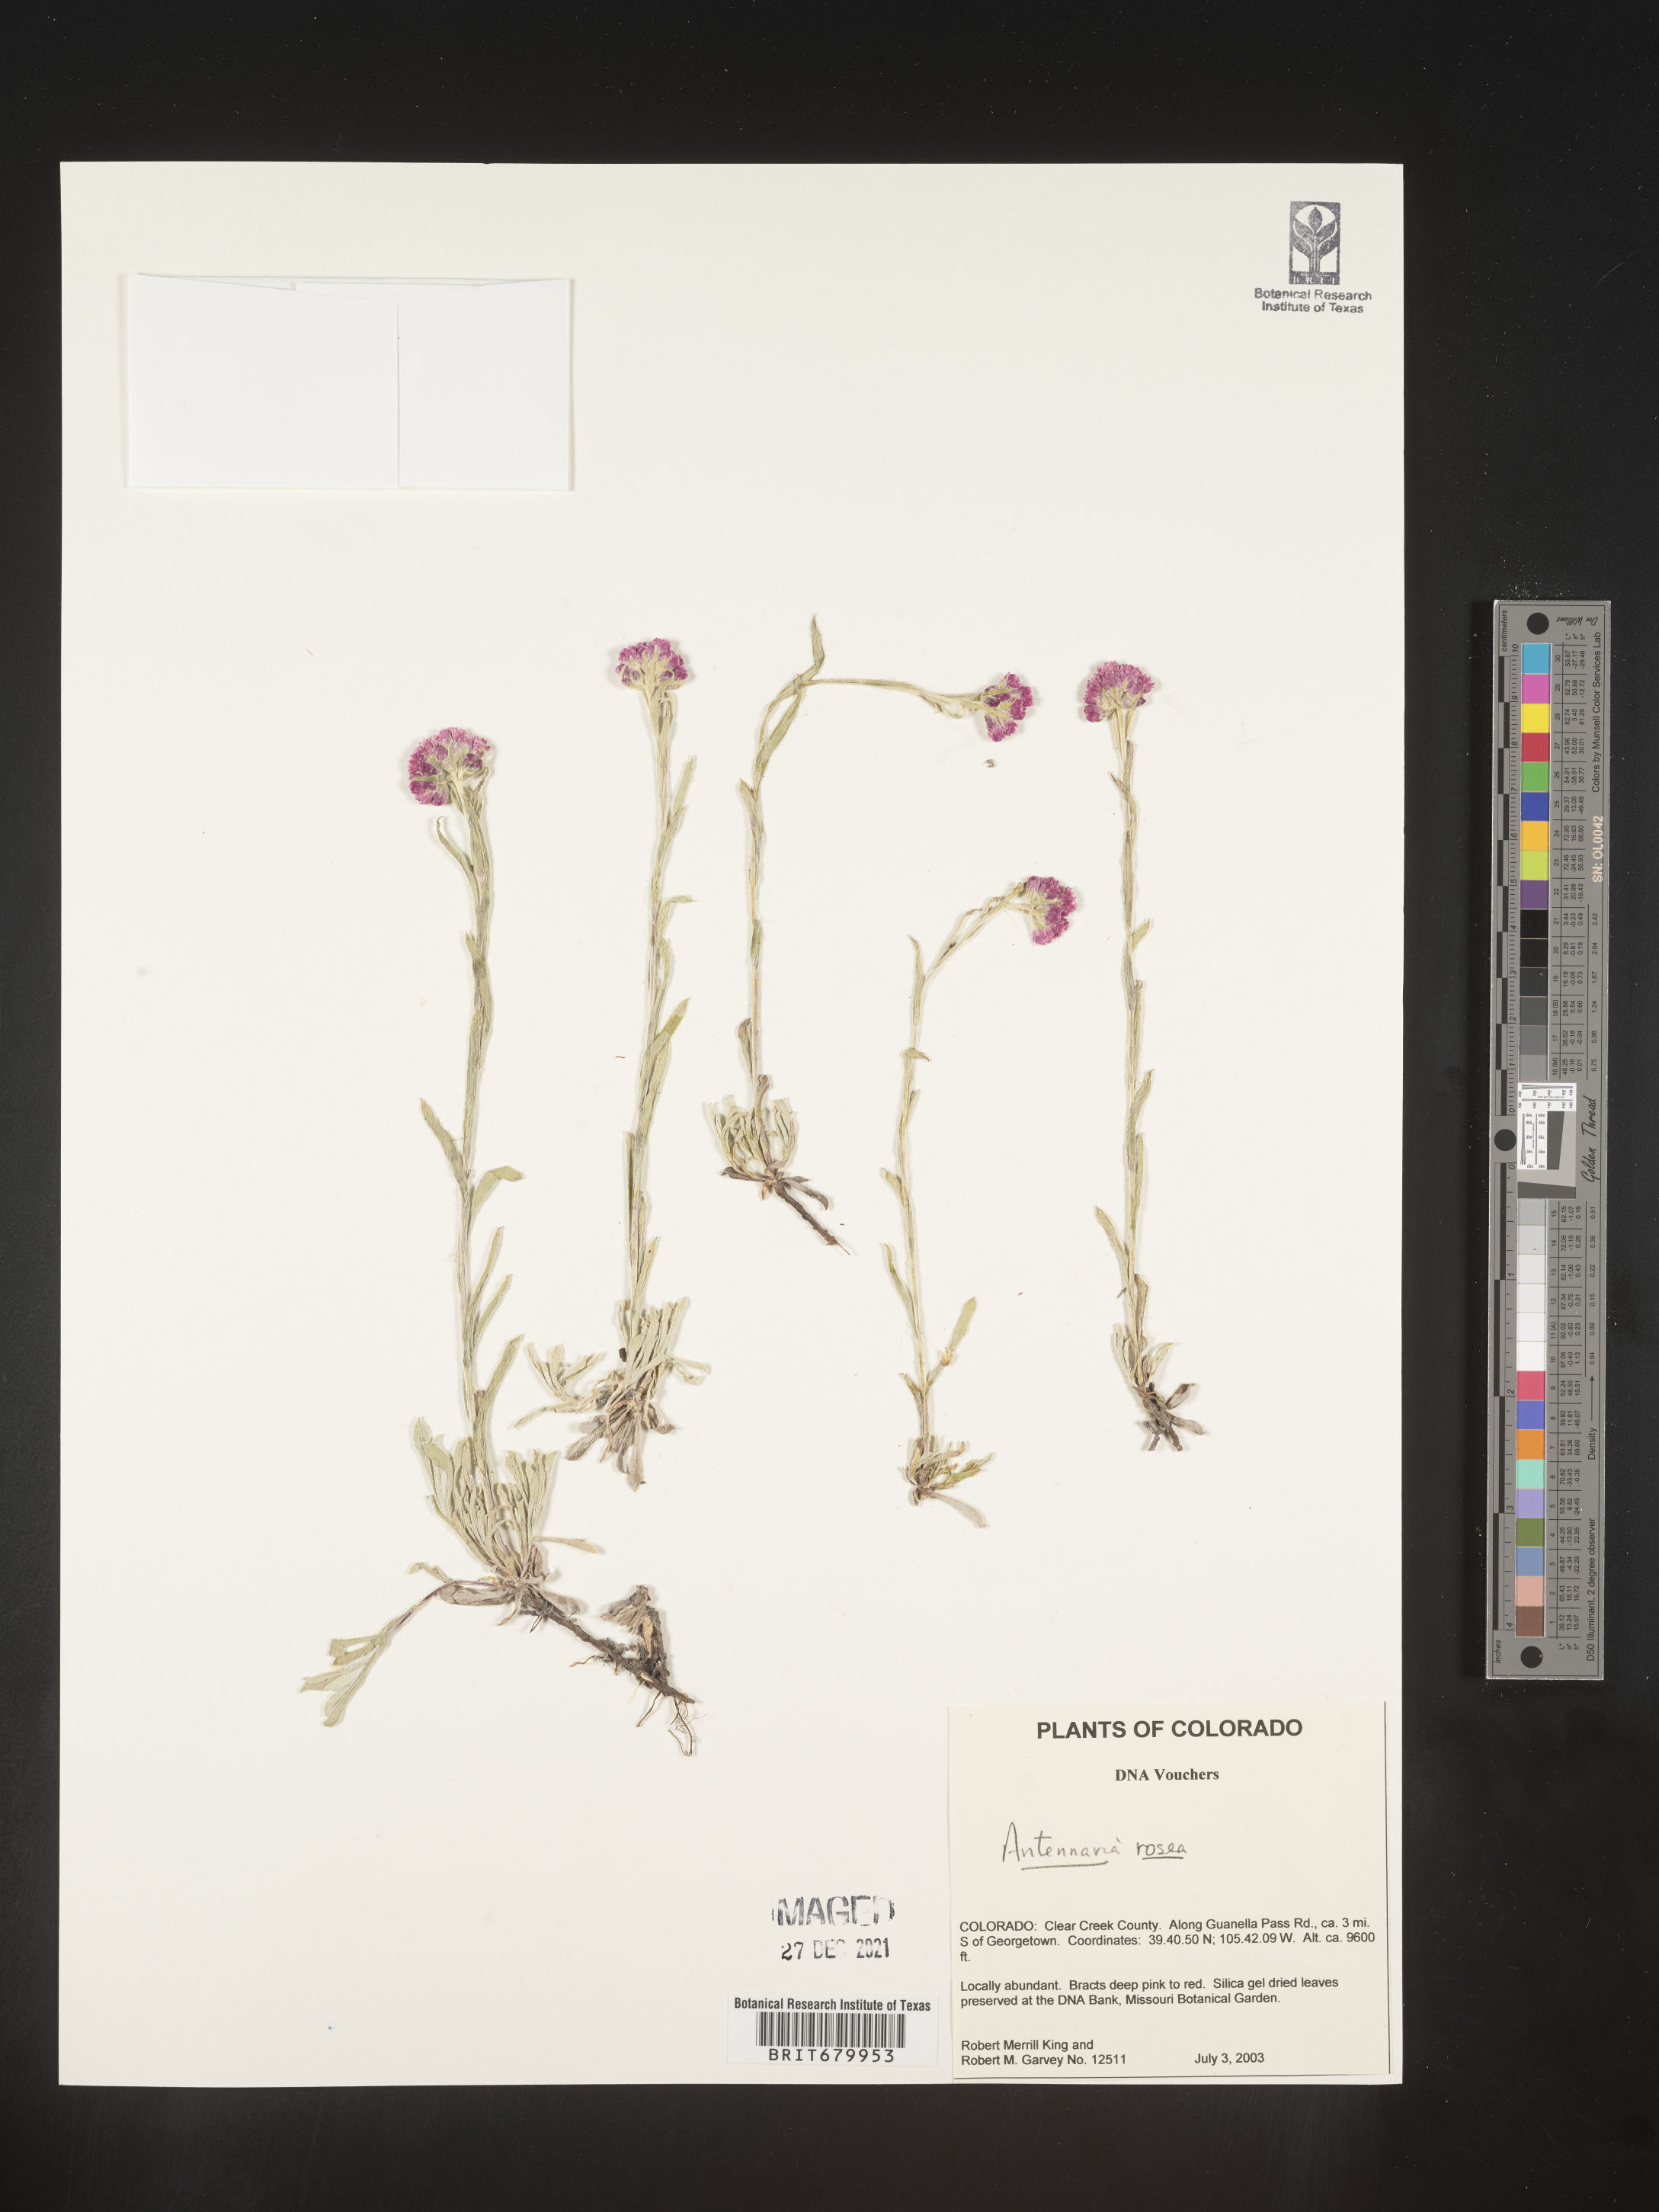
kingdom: Plantae
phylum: Tracheophyta
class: Magnoliopsida
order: Asterales
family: Asteraceae
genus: Antennaria
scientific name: Antennaria rosea
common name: Rosy pussytoes
